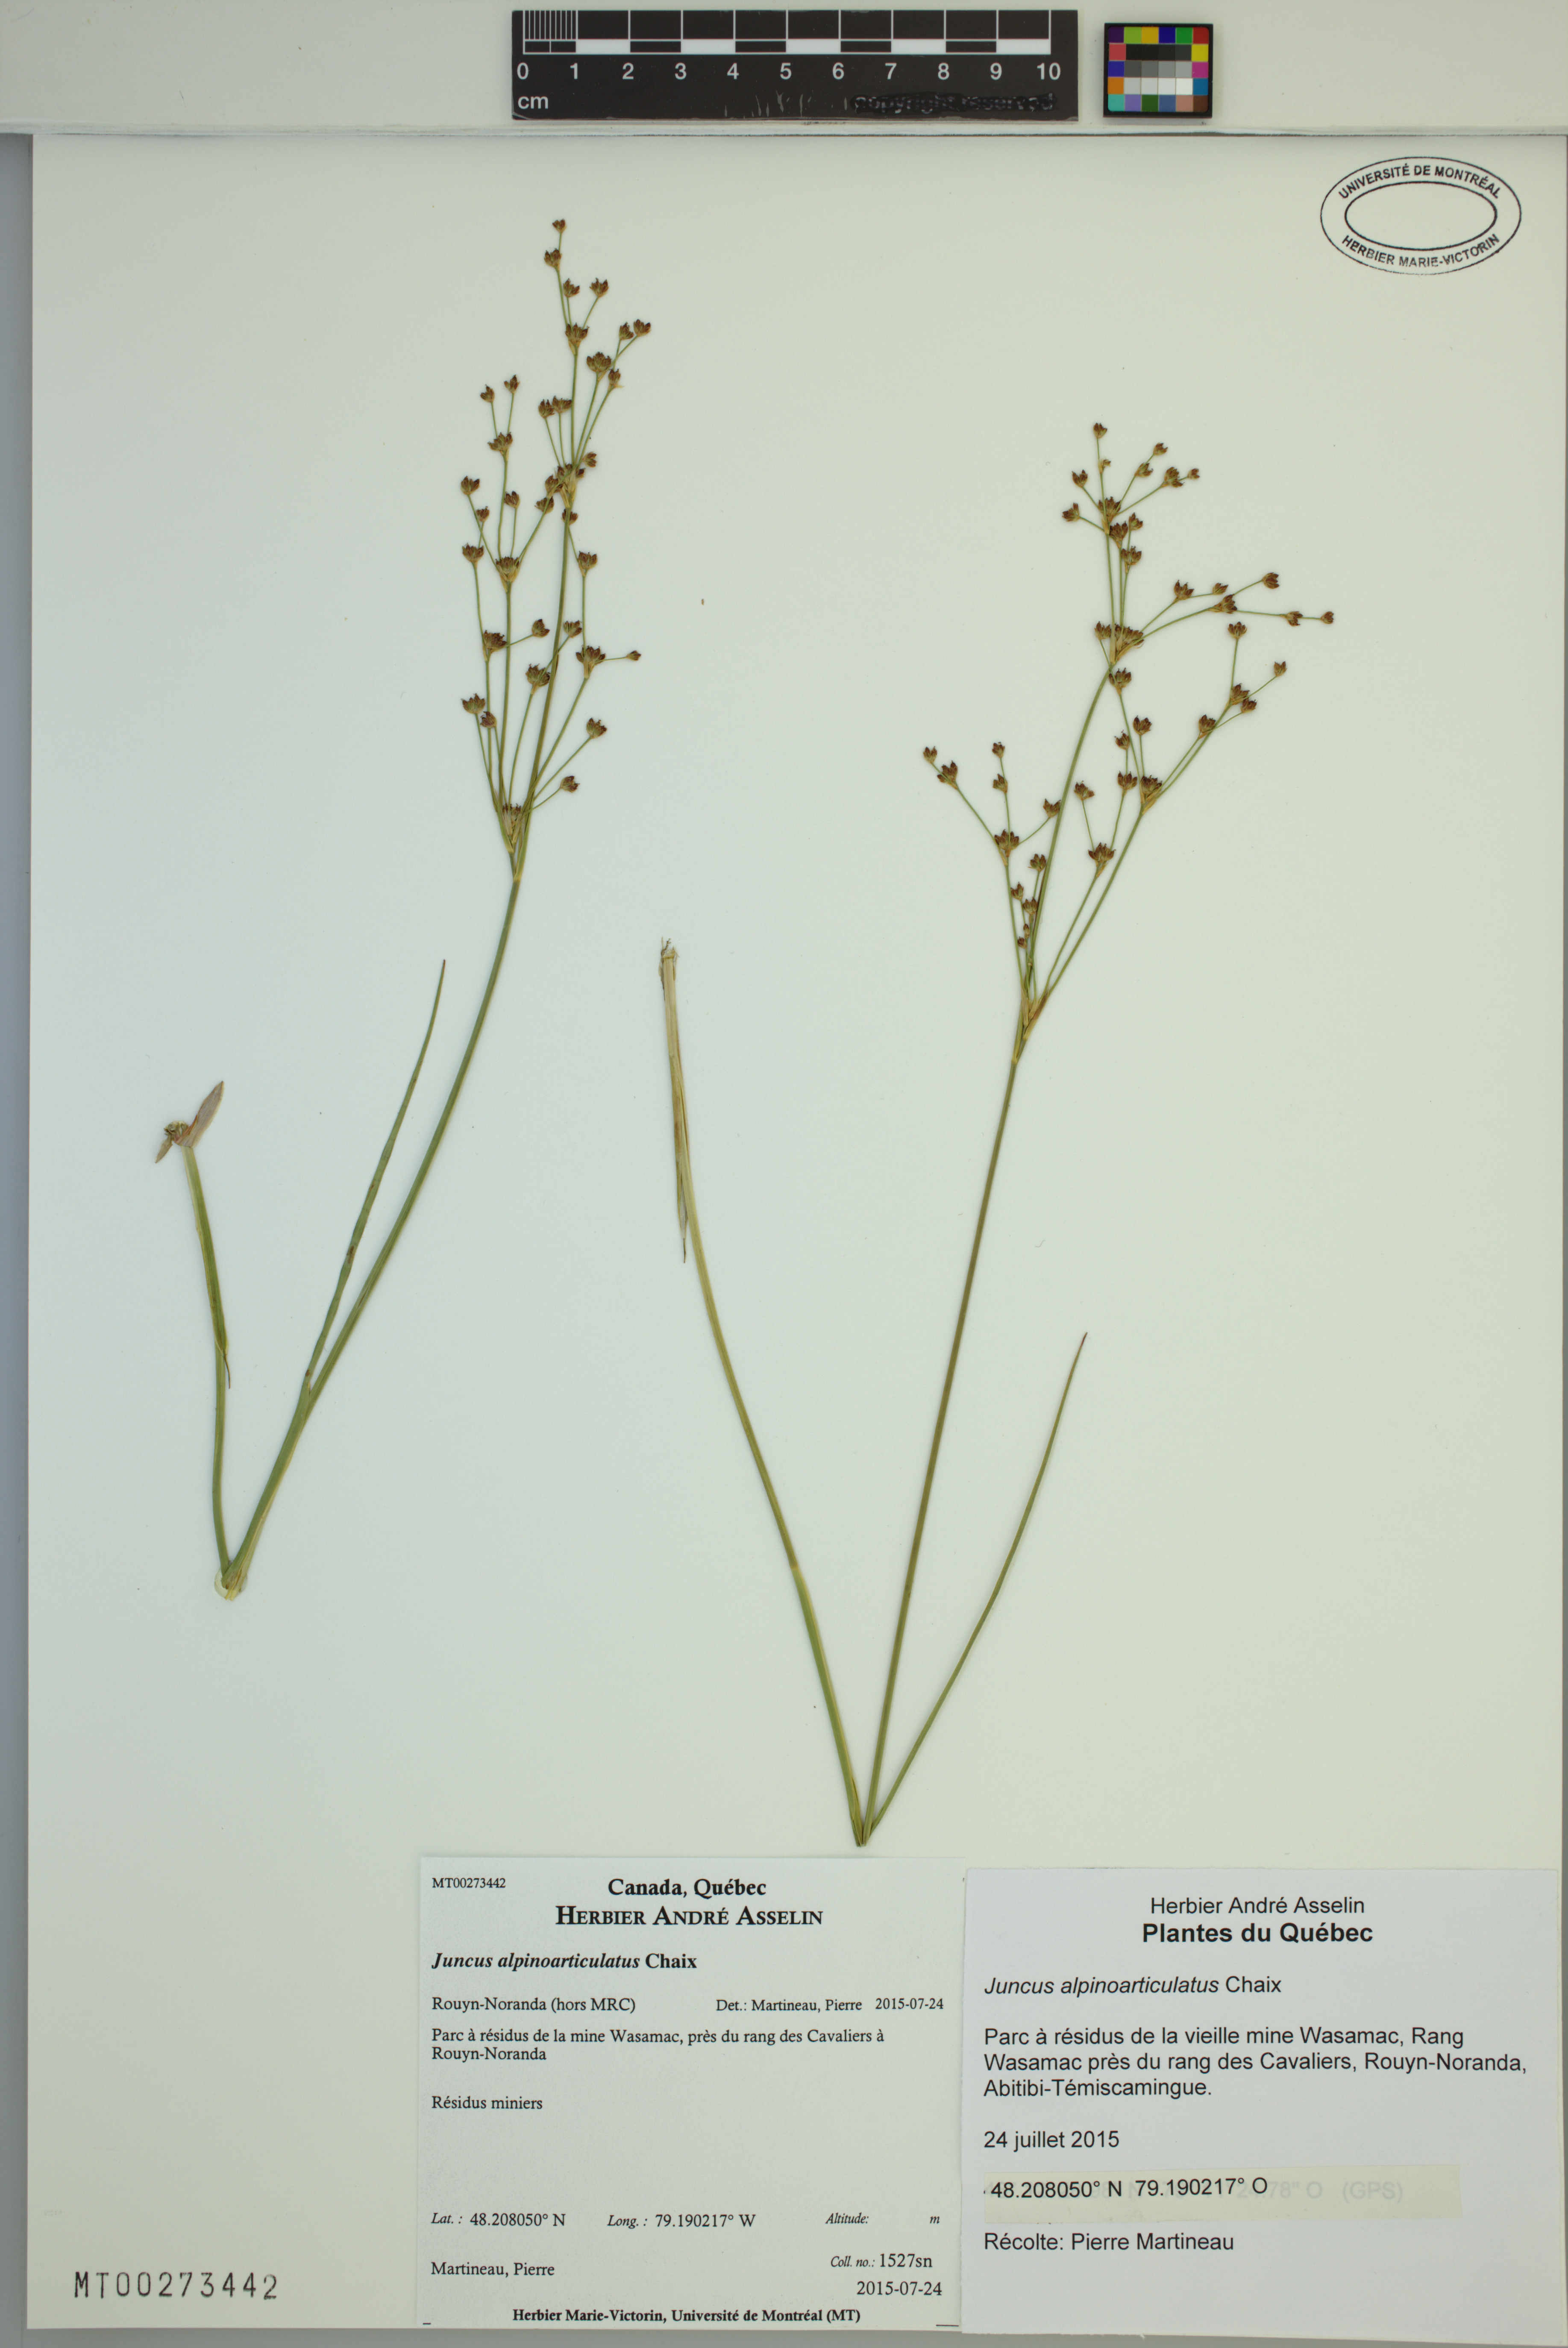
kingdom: Plantae
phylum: Tracheophyta
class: Liliopsida
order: Poales
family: Juncaceae
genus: Juncus
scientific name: Juncus alpinoarticulatus
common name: Alpine rush
